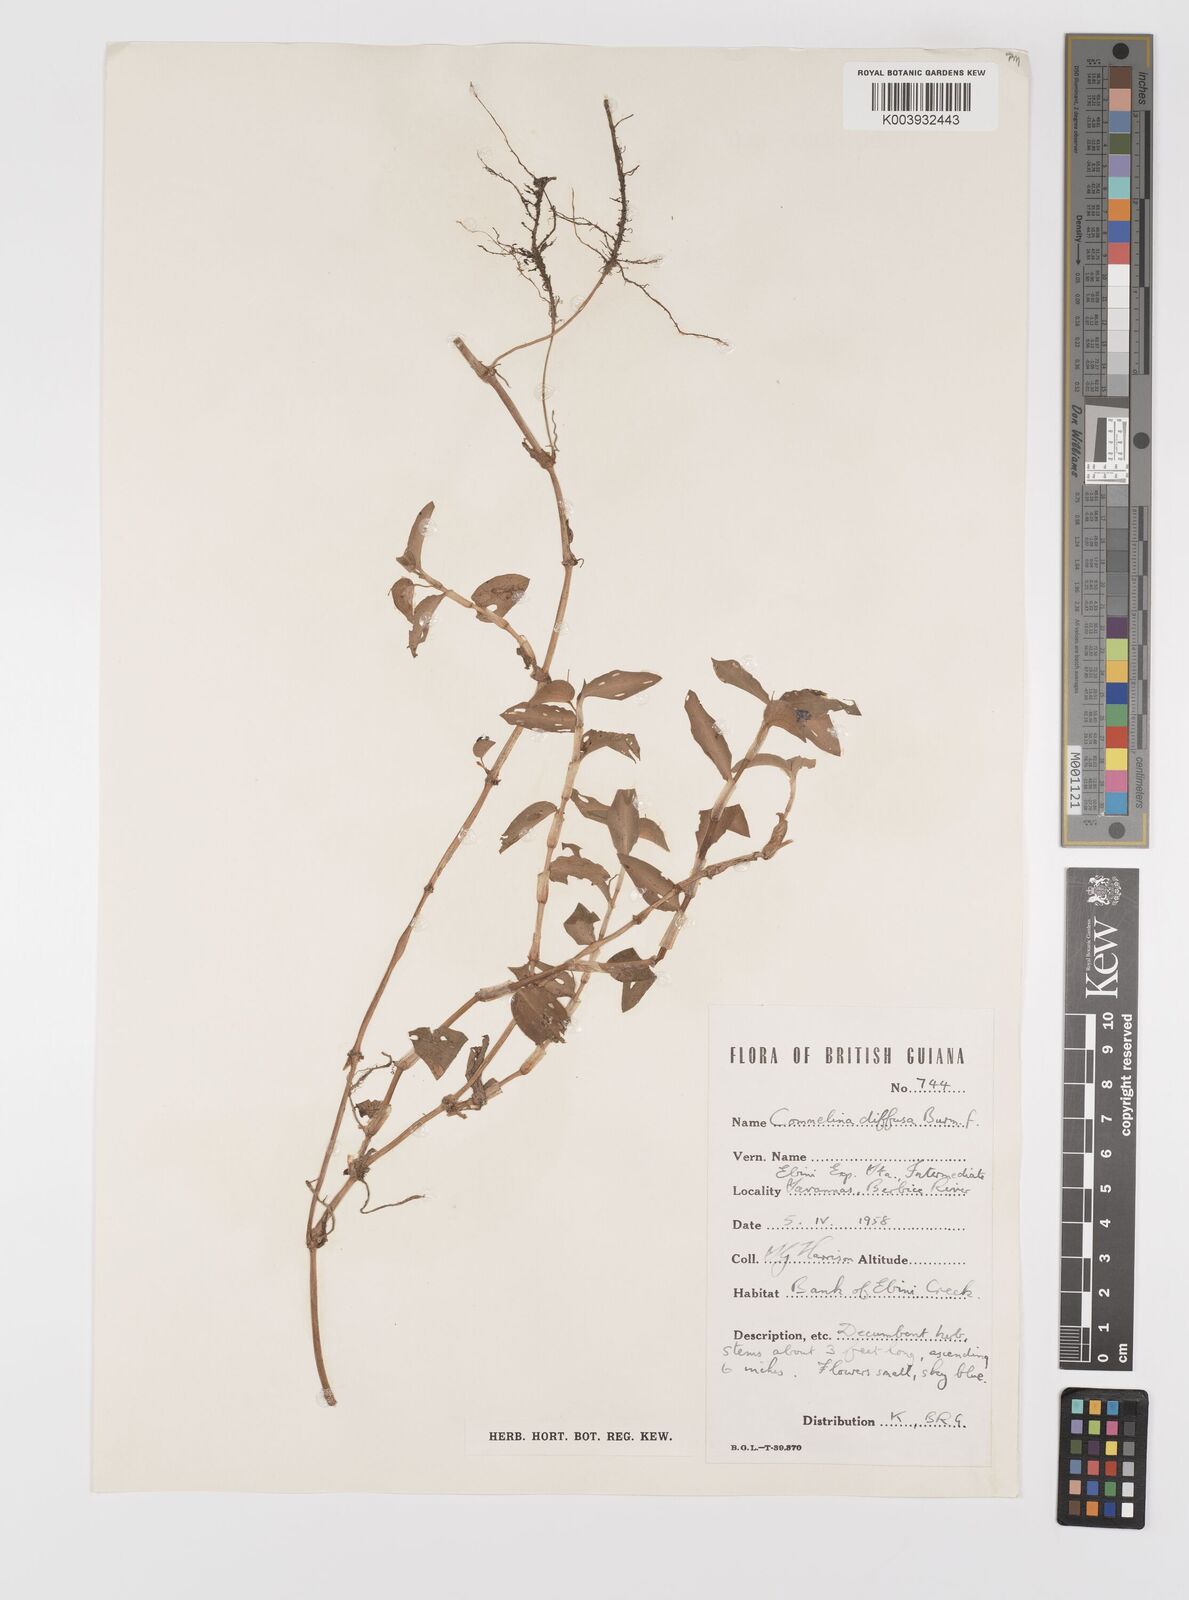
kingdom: Plantae
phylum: Tracheophyta
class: Liliopsida
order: Commelinales
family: Commelinaceae
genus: Commelina
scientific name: Commelina diffusa
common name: Climbing dayflower
